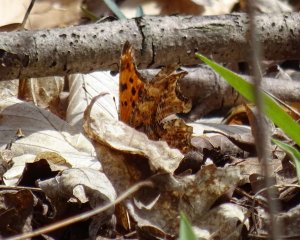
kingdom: Animalia
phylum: Arthropoda
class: Insecta
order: Lepidoptera
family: Nymphalidae
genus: Polygonia
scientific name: Polygonia comma
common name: Eastern Comma
